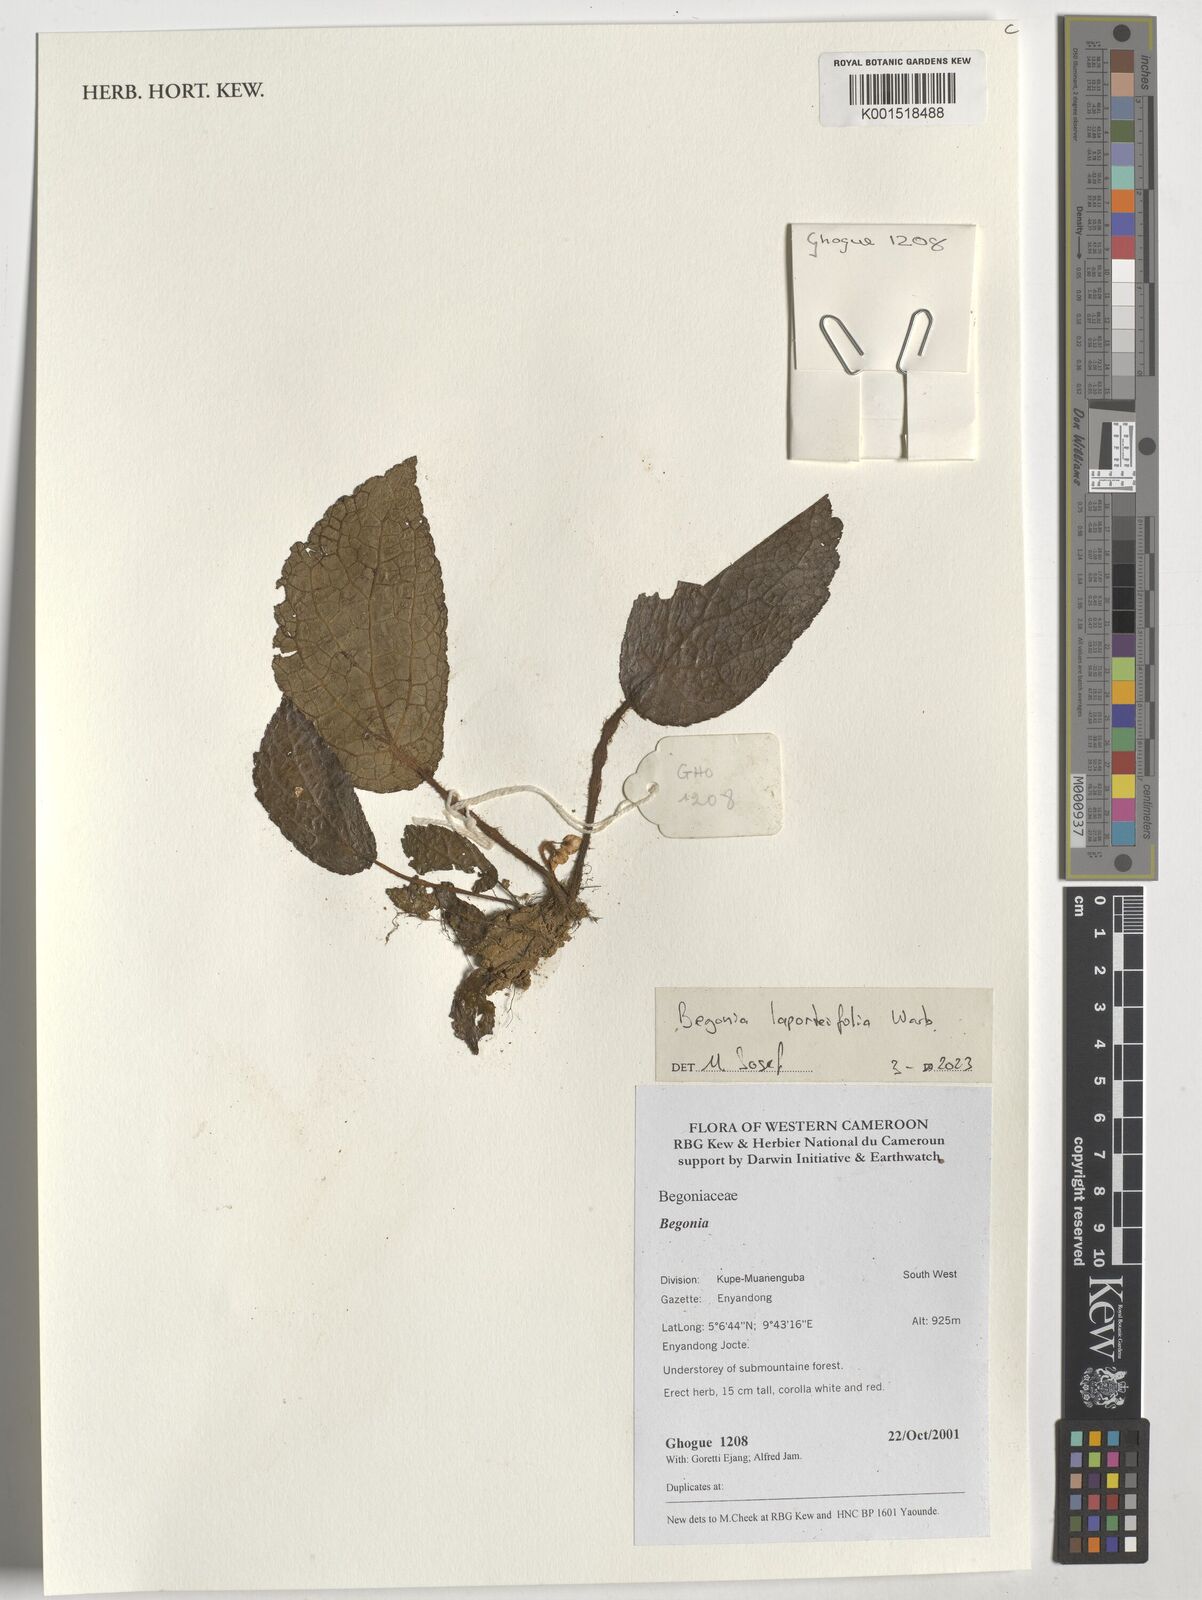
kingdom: Plantae
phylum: Tracheophyta
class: Magnoliopsida
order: Cucurbitales
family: Begoniaceae
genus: Begonia
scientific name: Begonia laporteifolia
